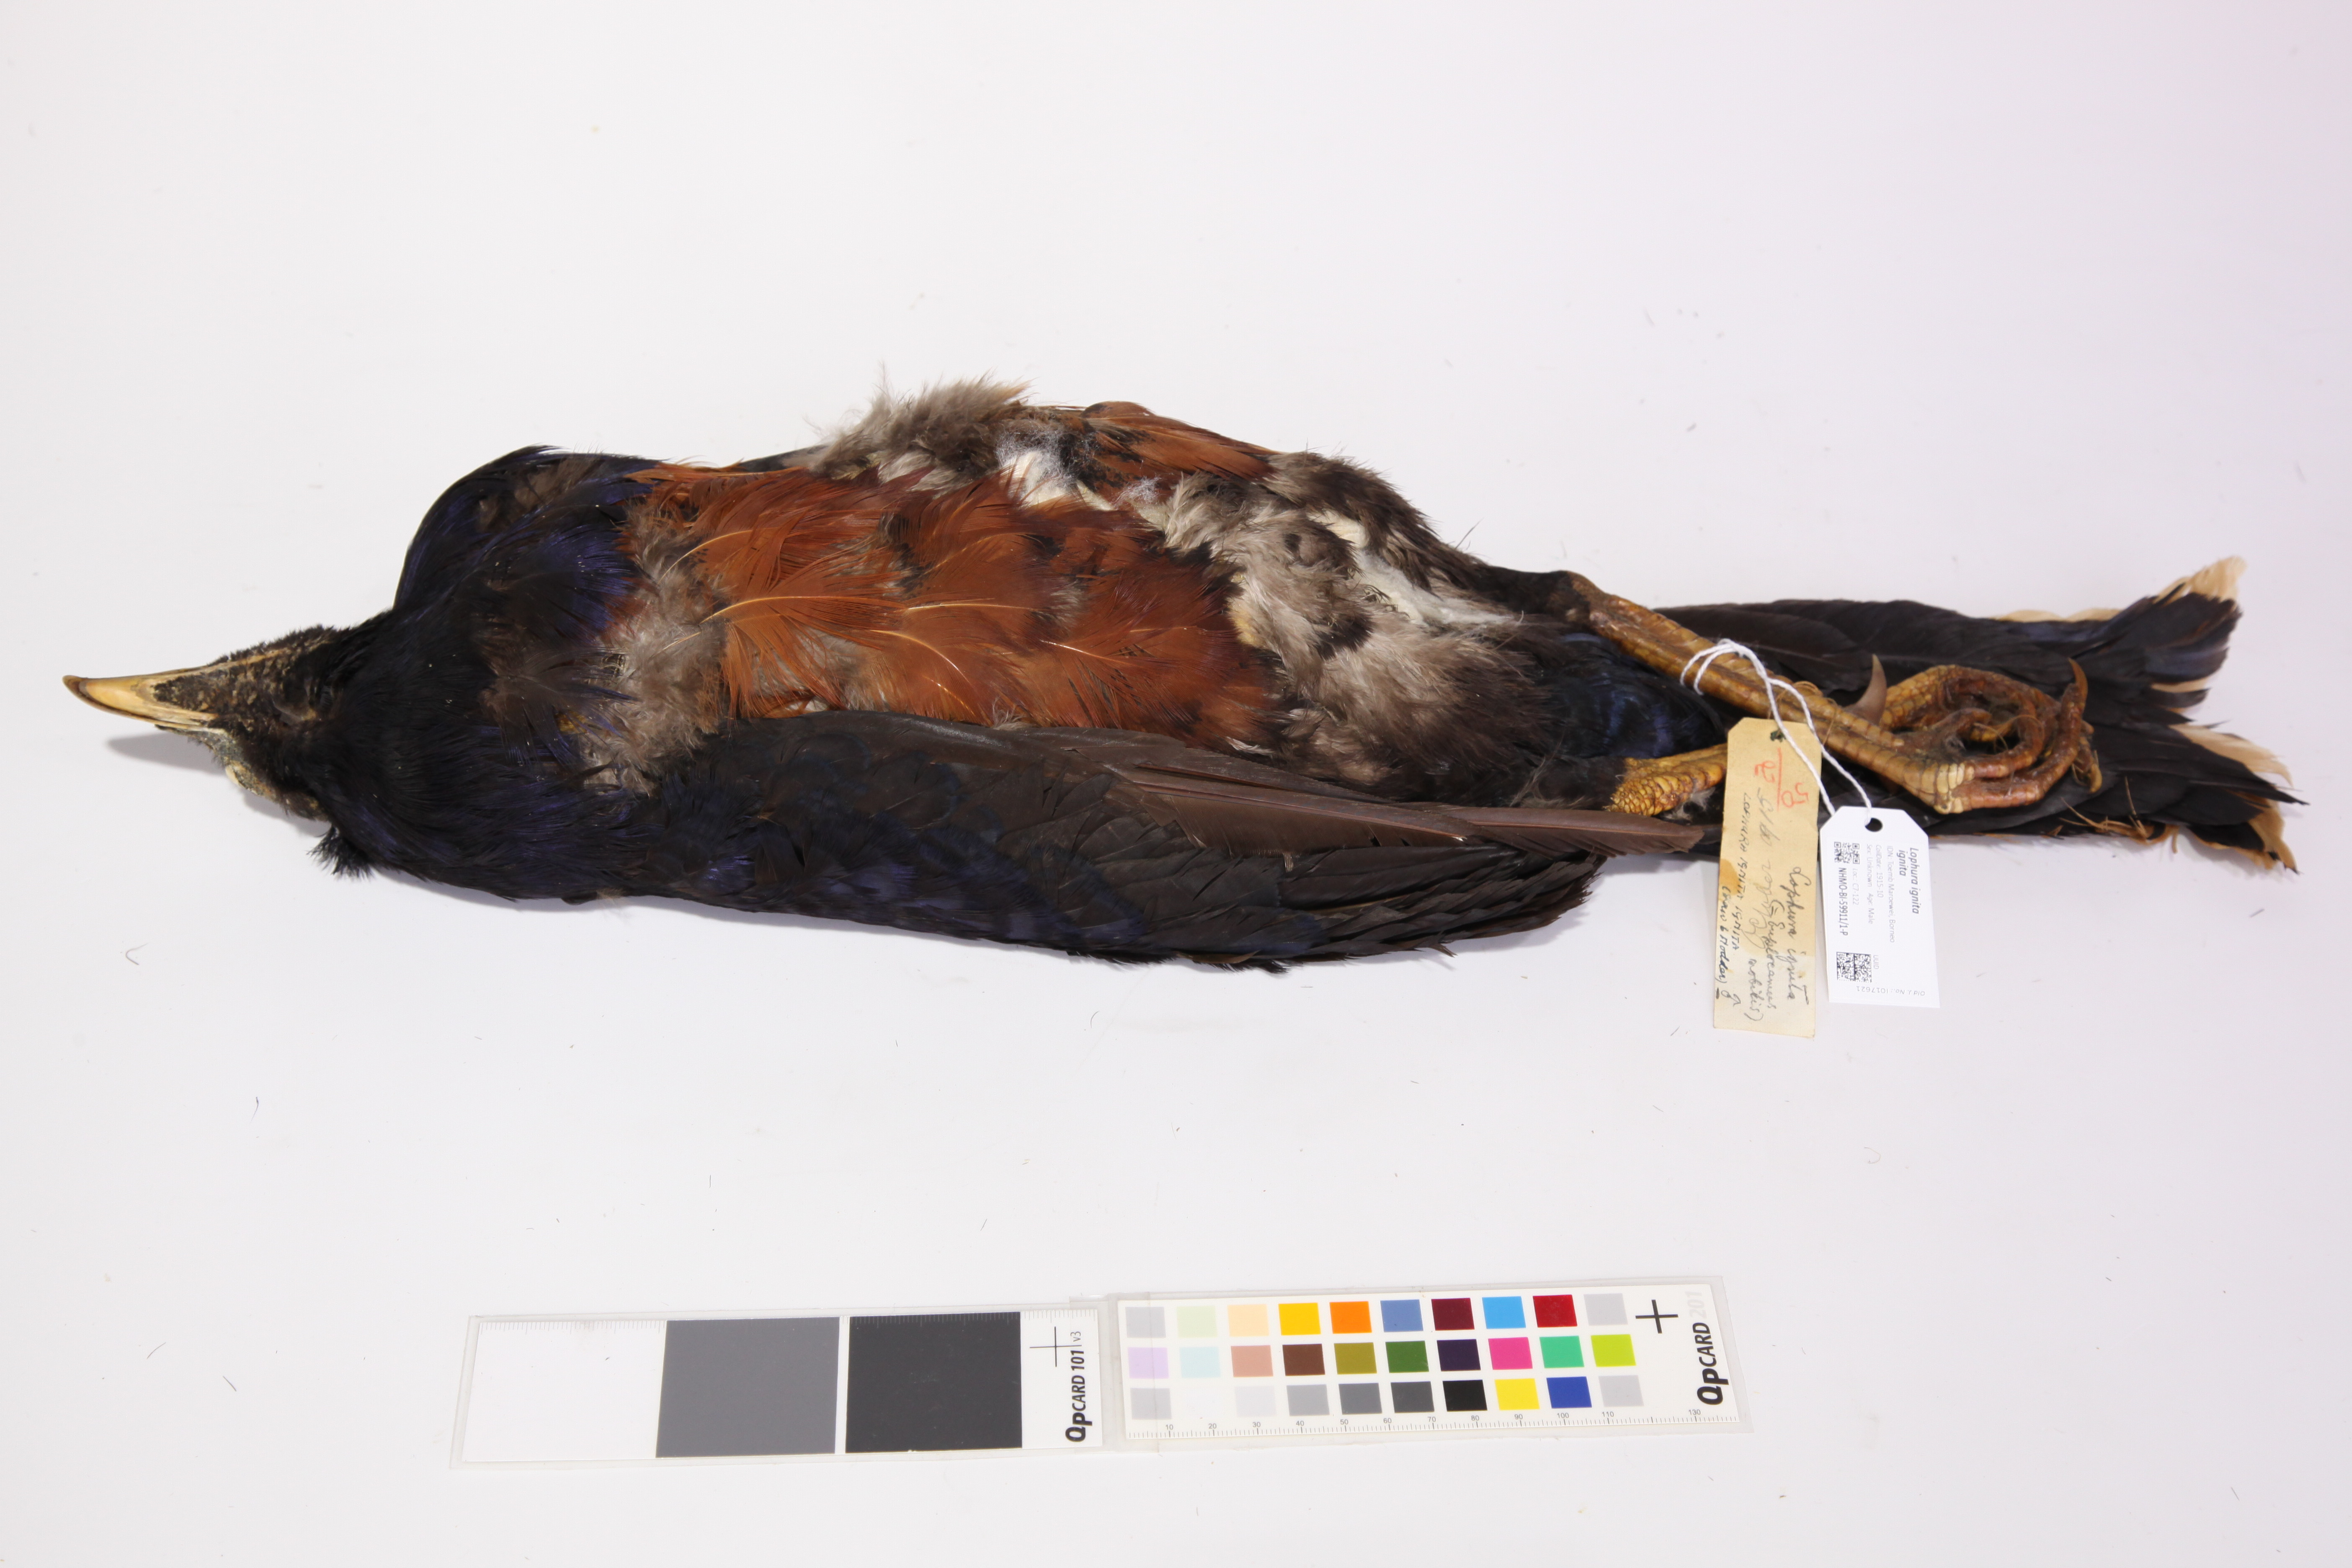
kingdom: Animalia
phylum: Chordata
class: Aves
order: Galliformes
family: Phasianidae
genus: Lophura
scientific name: Lophura ignita
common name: Crested fireback
